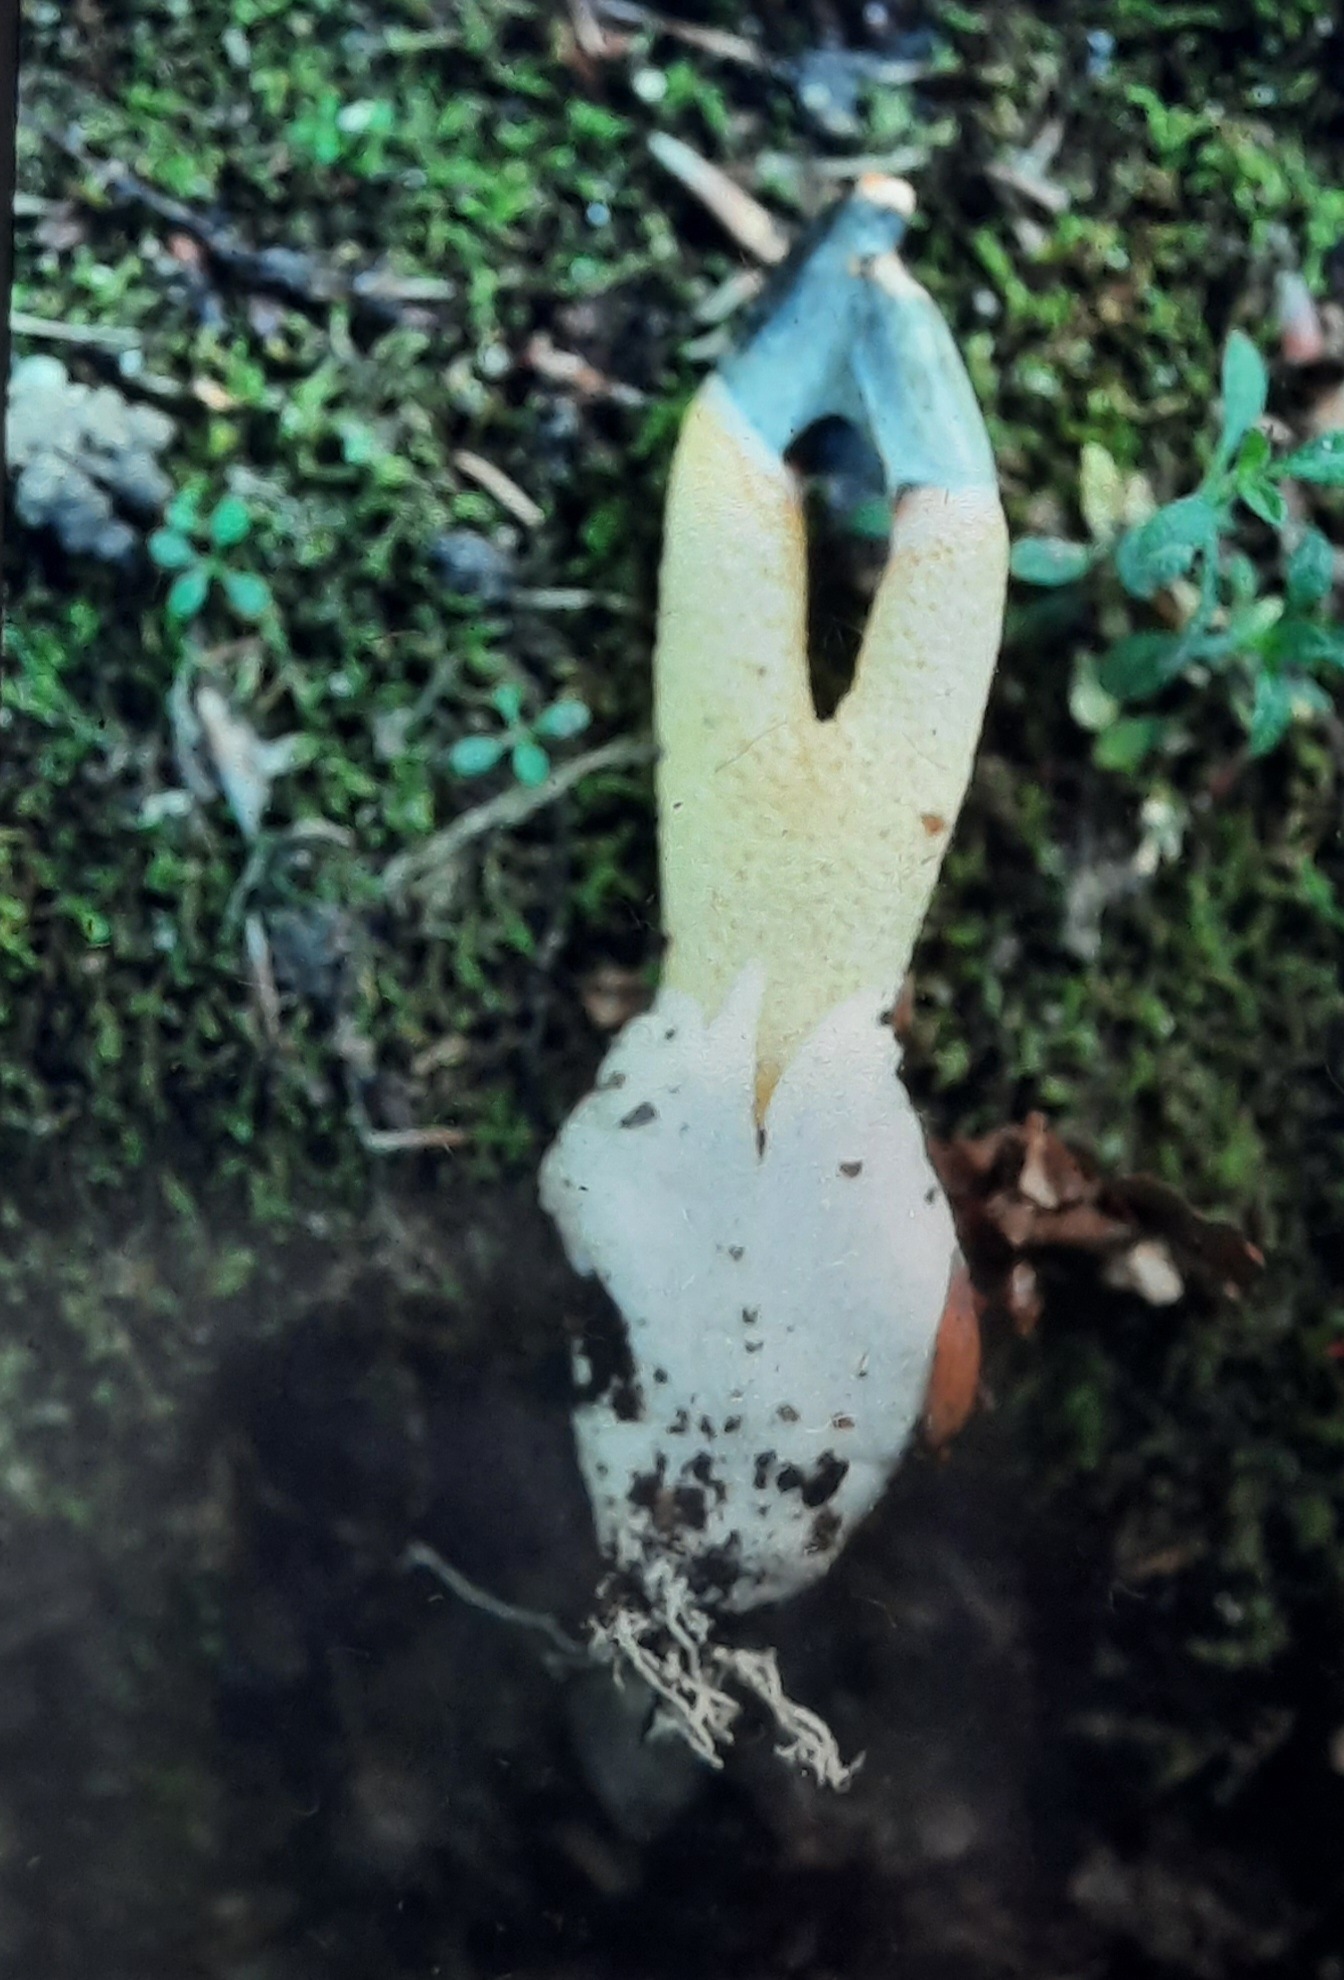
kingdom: Fungi
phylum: Basidiomycota
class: Agaricomycetes
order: Phallales
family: Phallaceae
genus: Mutinus
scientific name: Mutinus caninus
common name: hunde-stinksvamp
